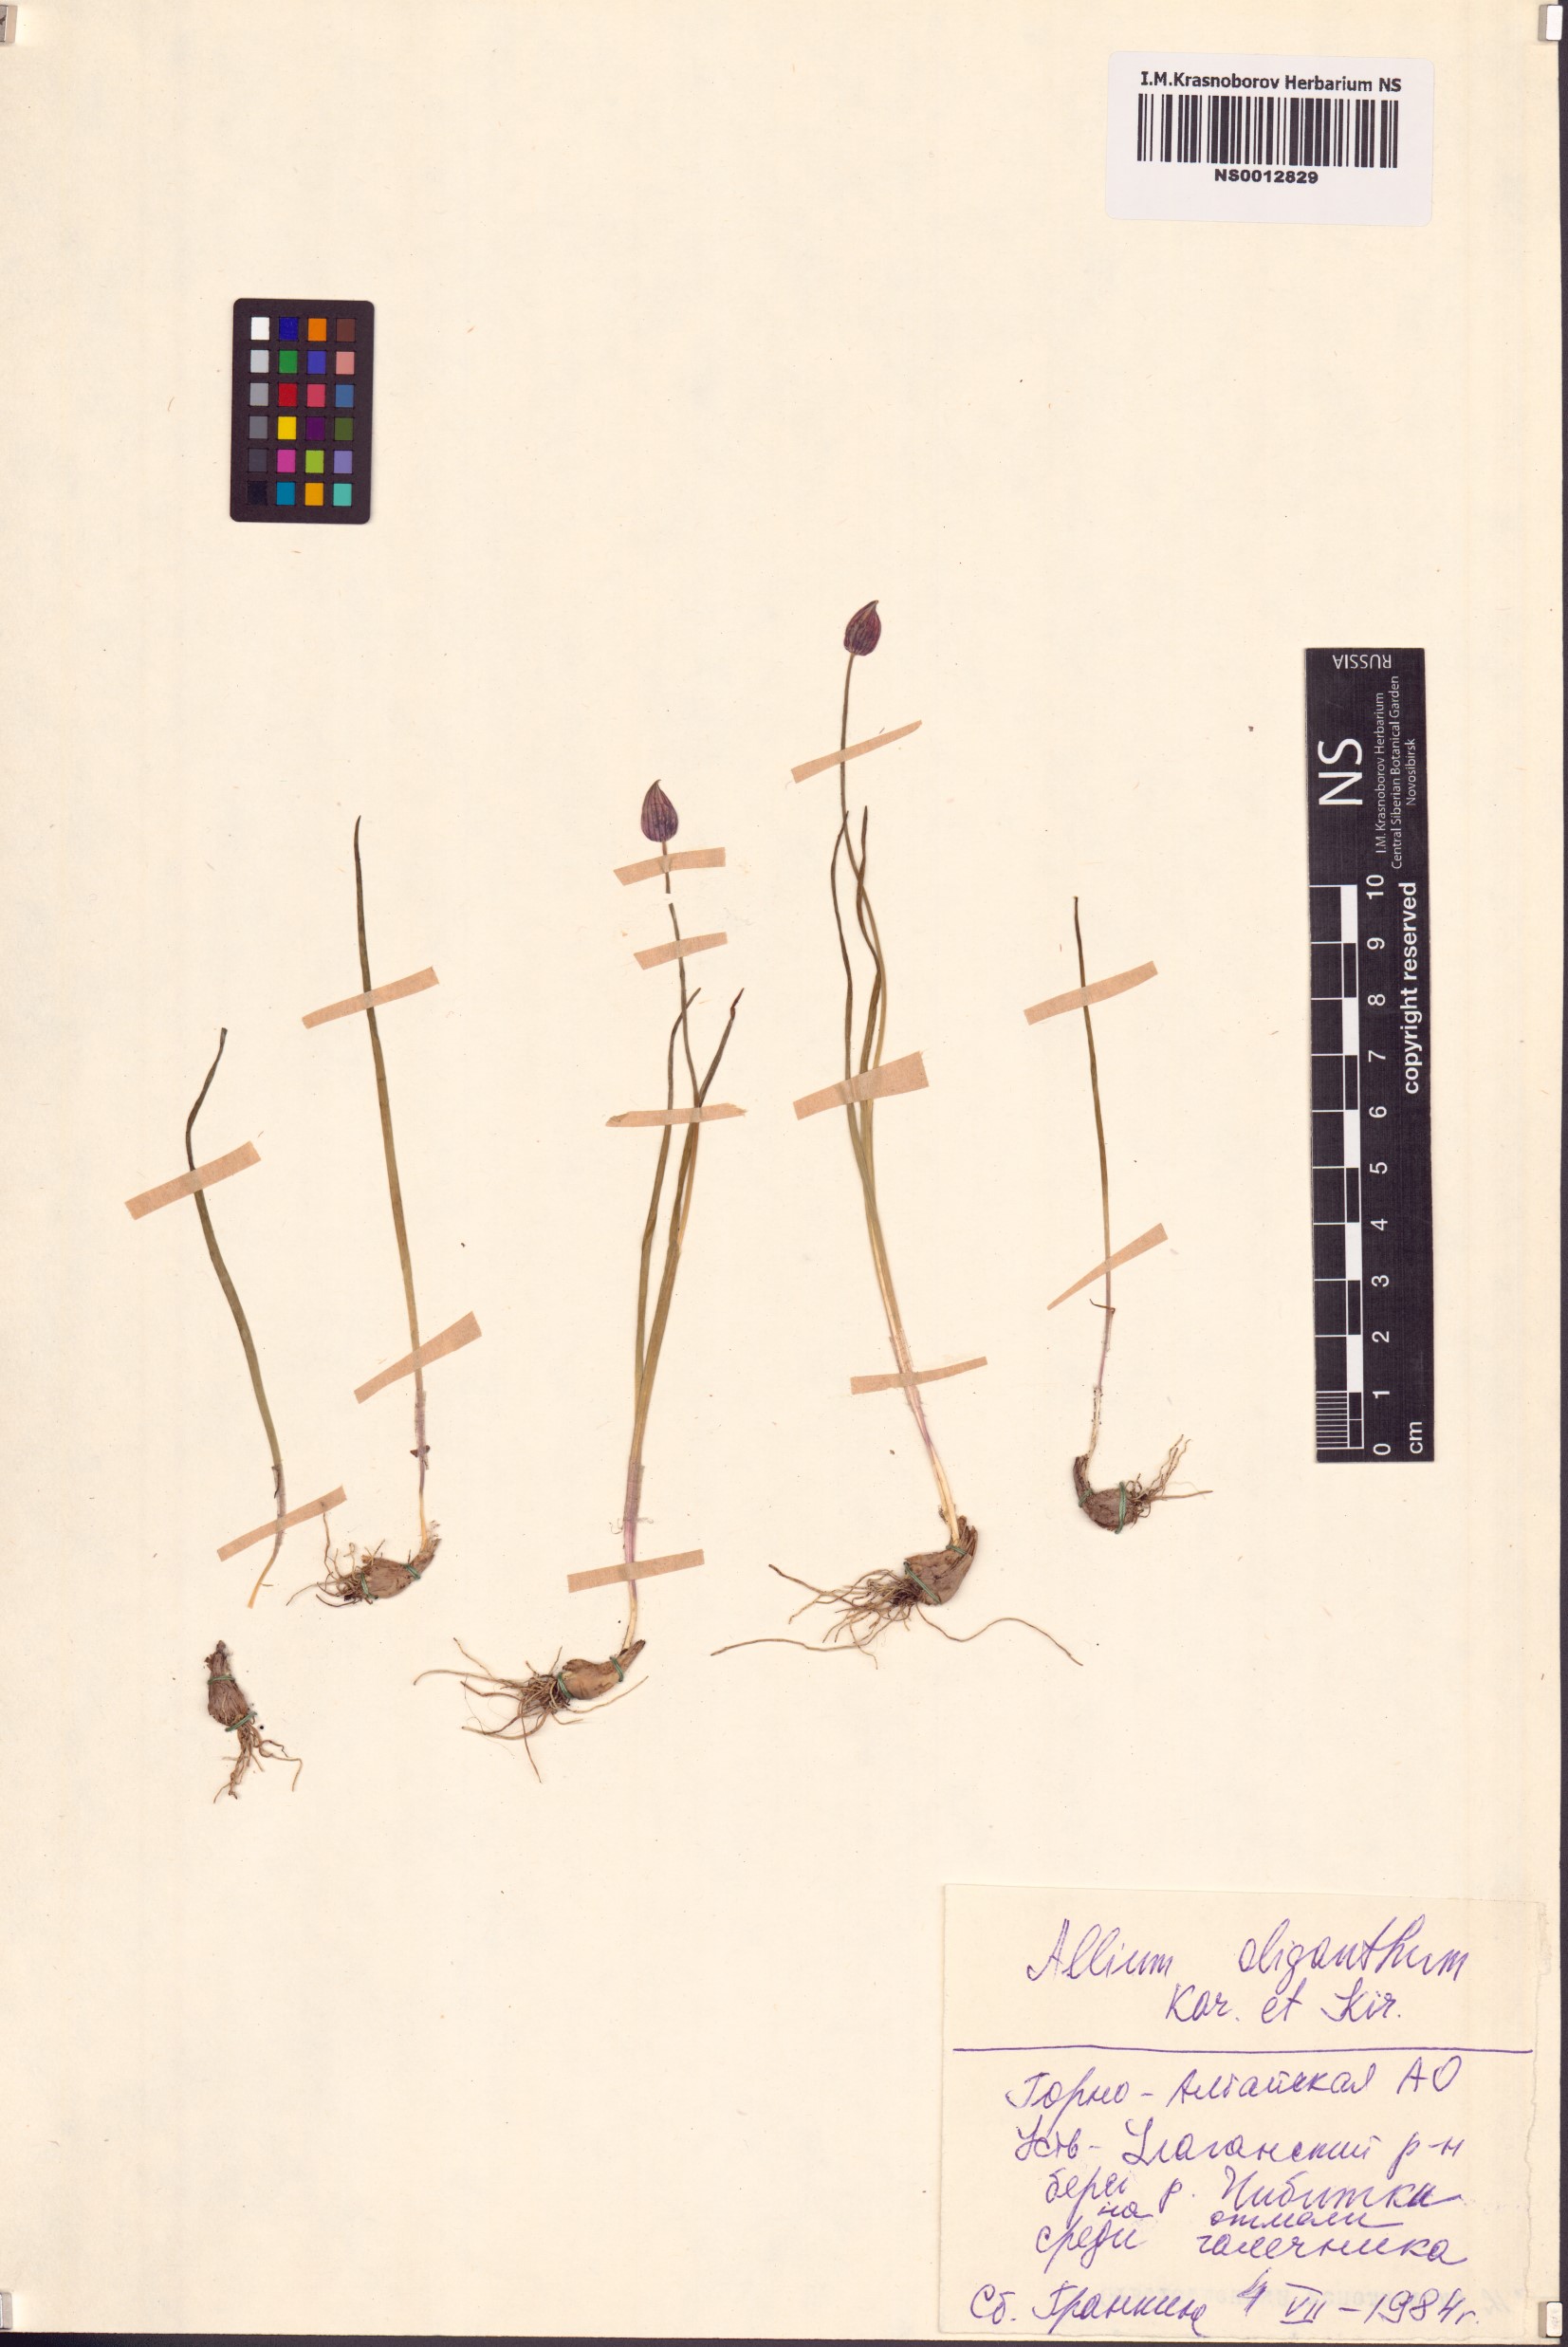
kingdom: Plantae
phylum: Tracheophyta
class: Liliopsida
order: Asparagales
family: Amaryllidaceae
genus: Allium
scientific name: Allium oliganthum
